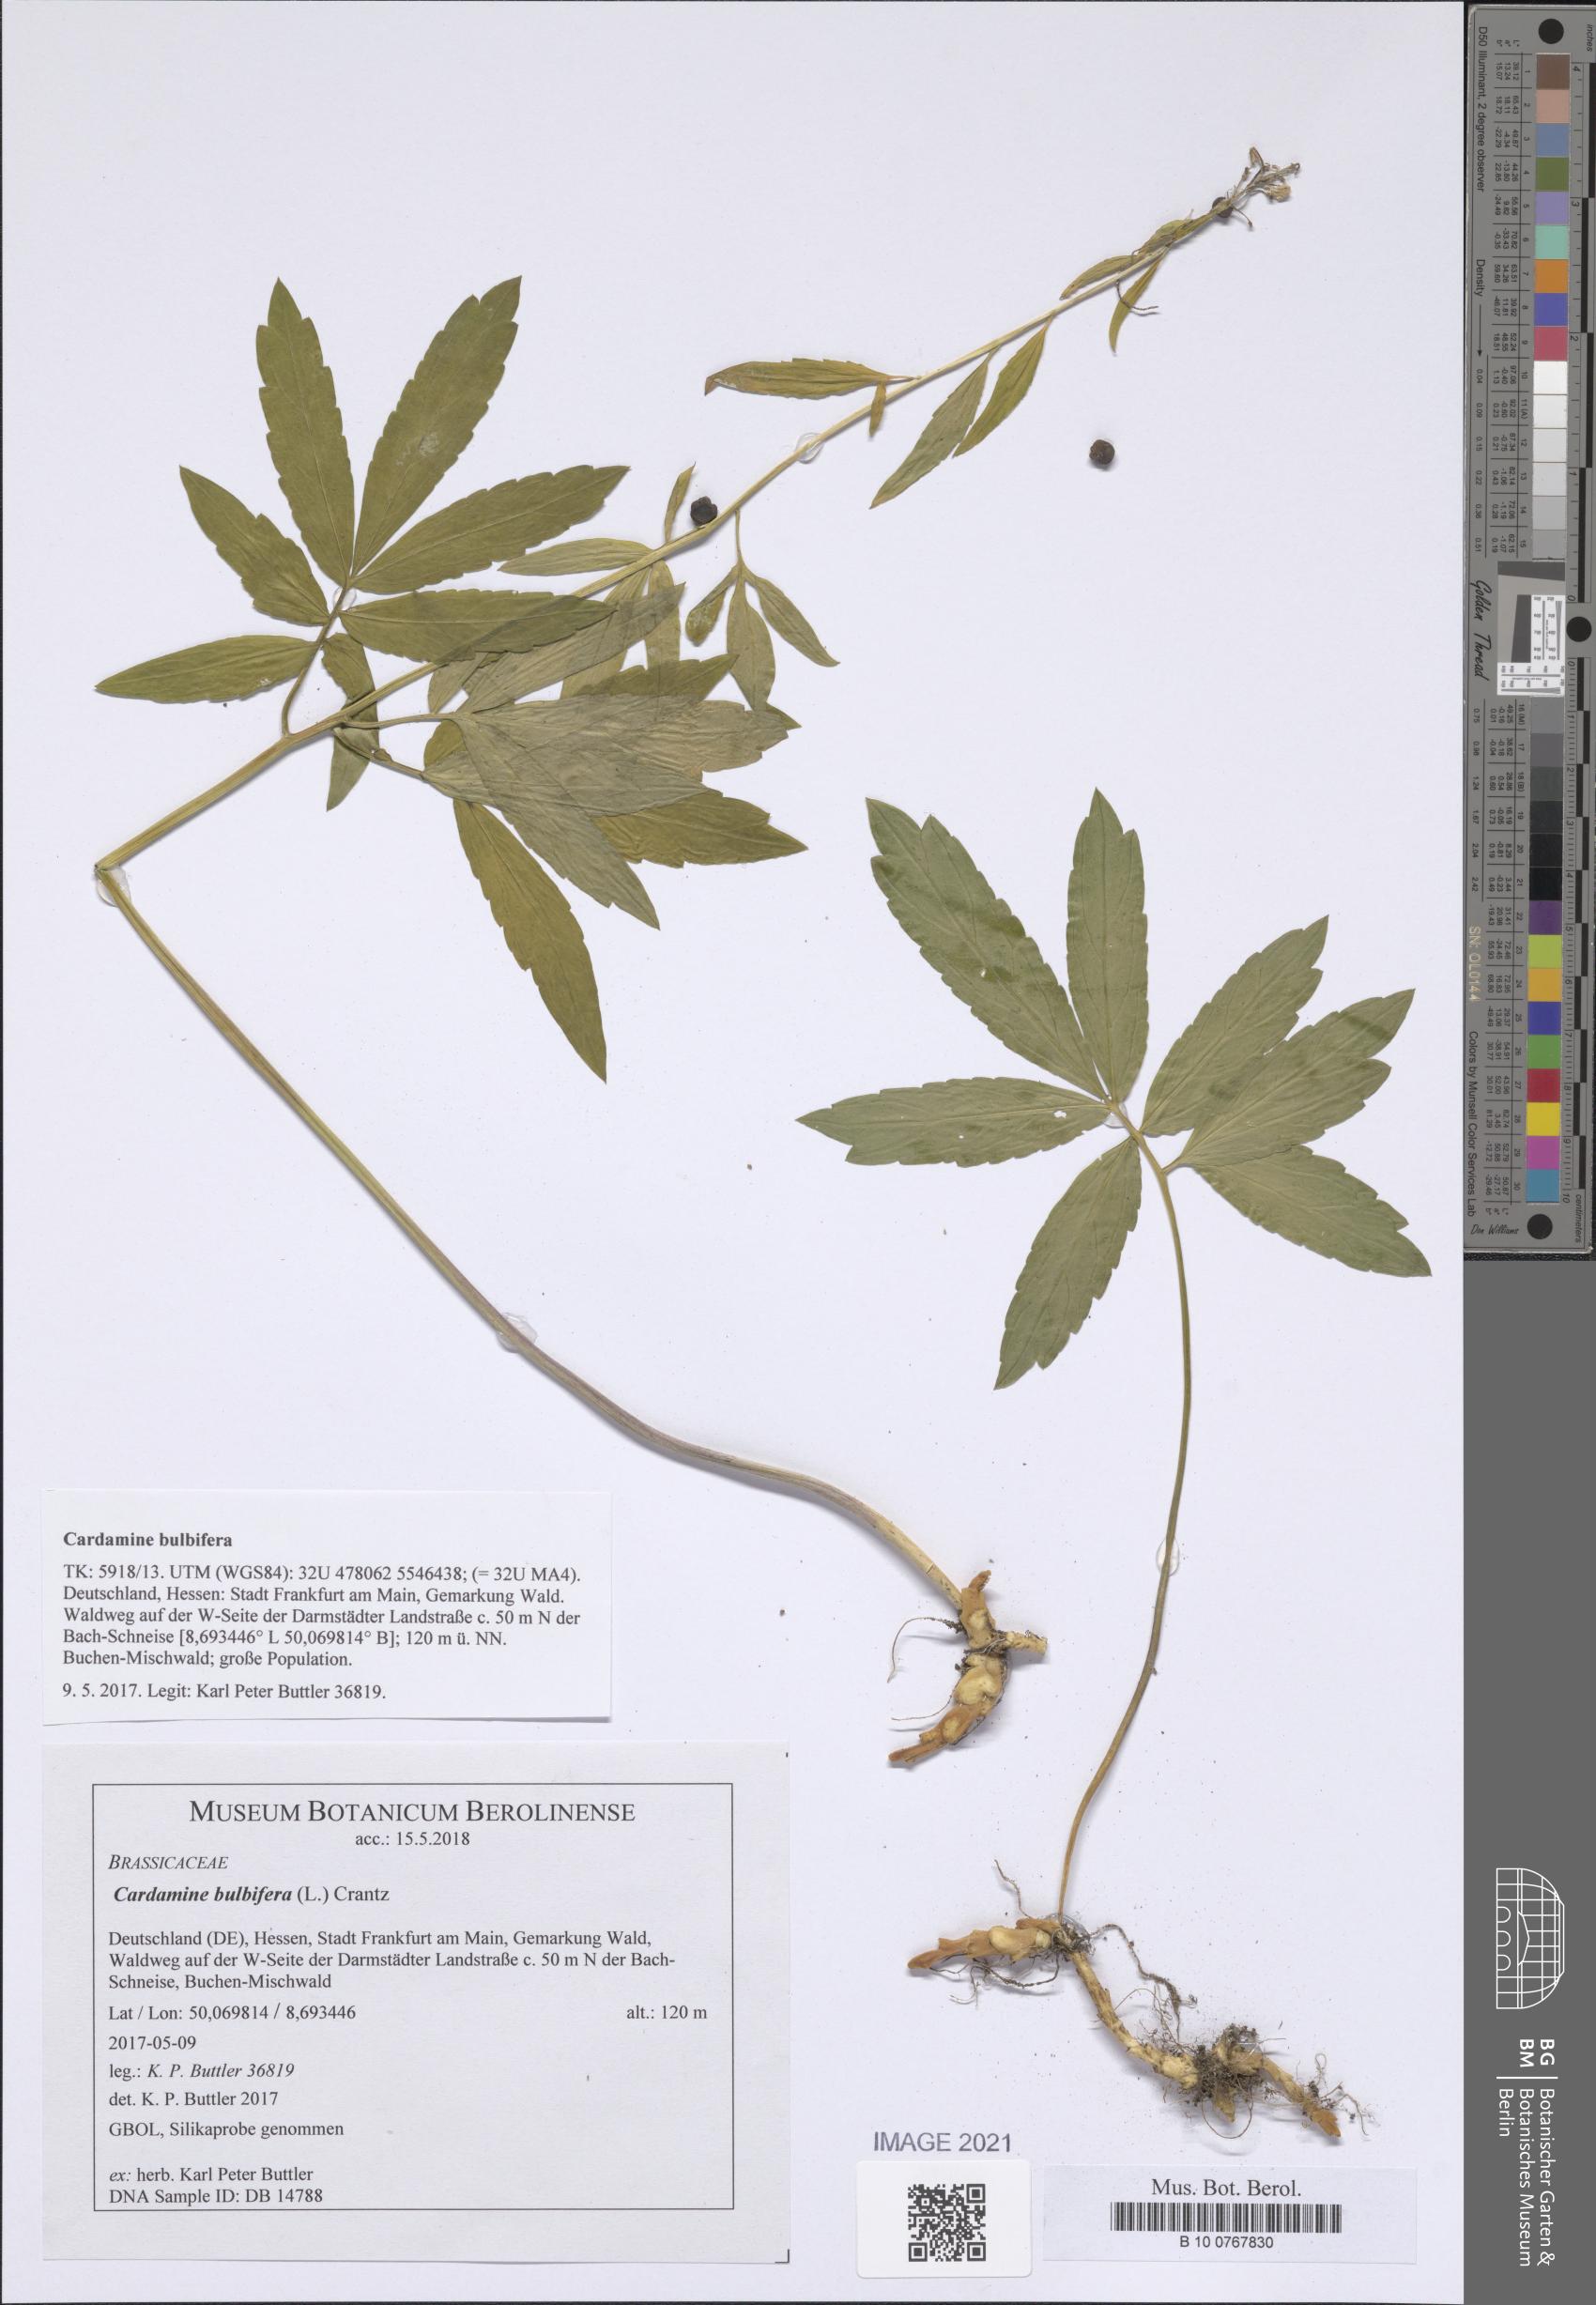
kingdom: Plantae
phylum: Tracheophyta
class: Magnoliopsida
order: Brassicales
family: Brassicaceae
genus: Cardamine
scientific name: Cardamine bulbifera
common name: Coralroot bittercress
